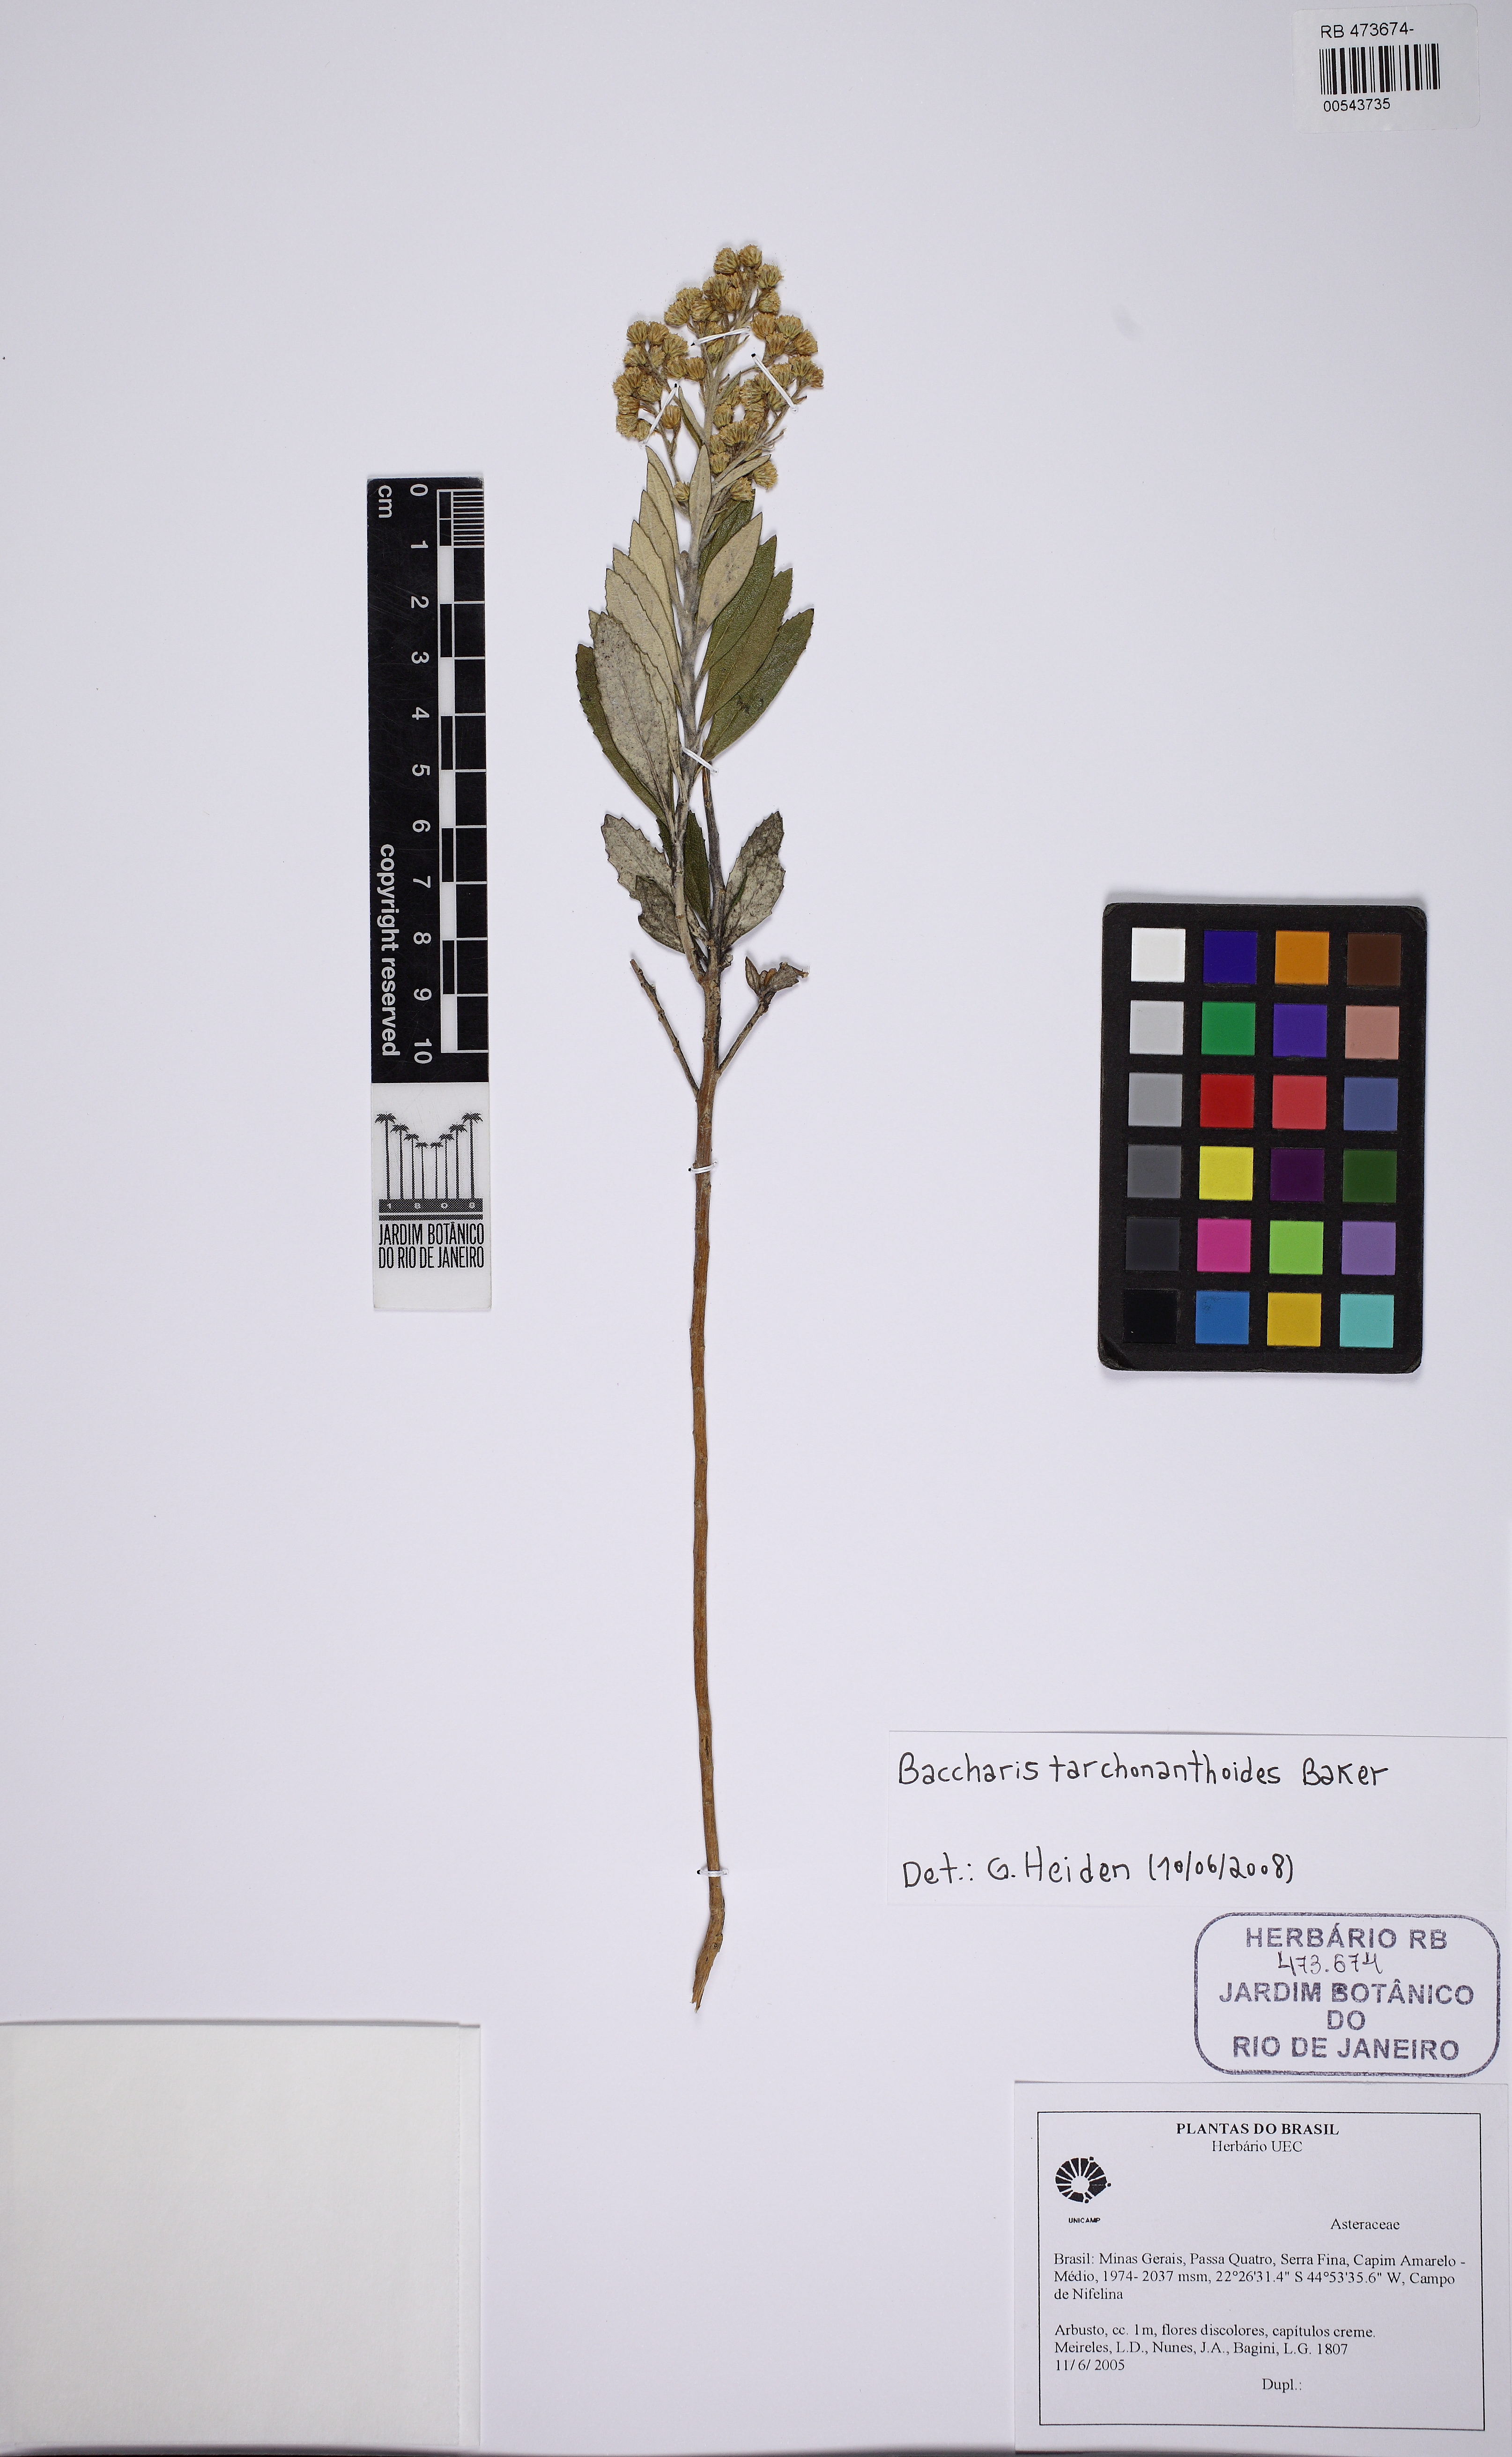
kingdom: Plantae
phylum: Tracheophyta
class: Magnoliopsida
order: Asterales
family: Asteraceae
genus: Baccharis
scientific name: Baccharis tarchonanthoides
